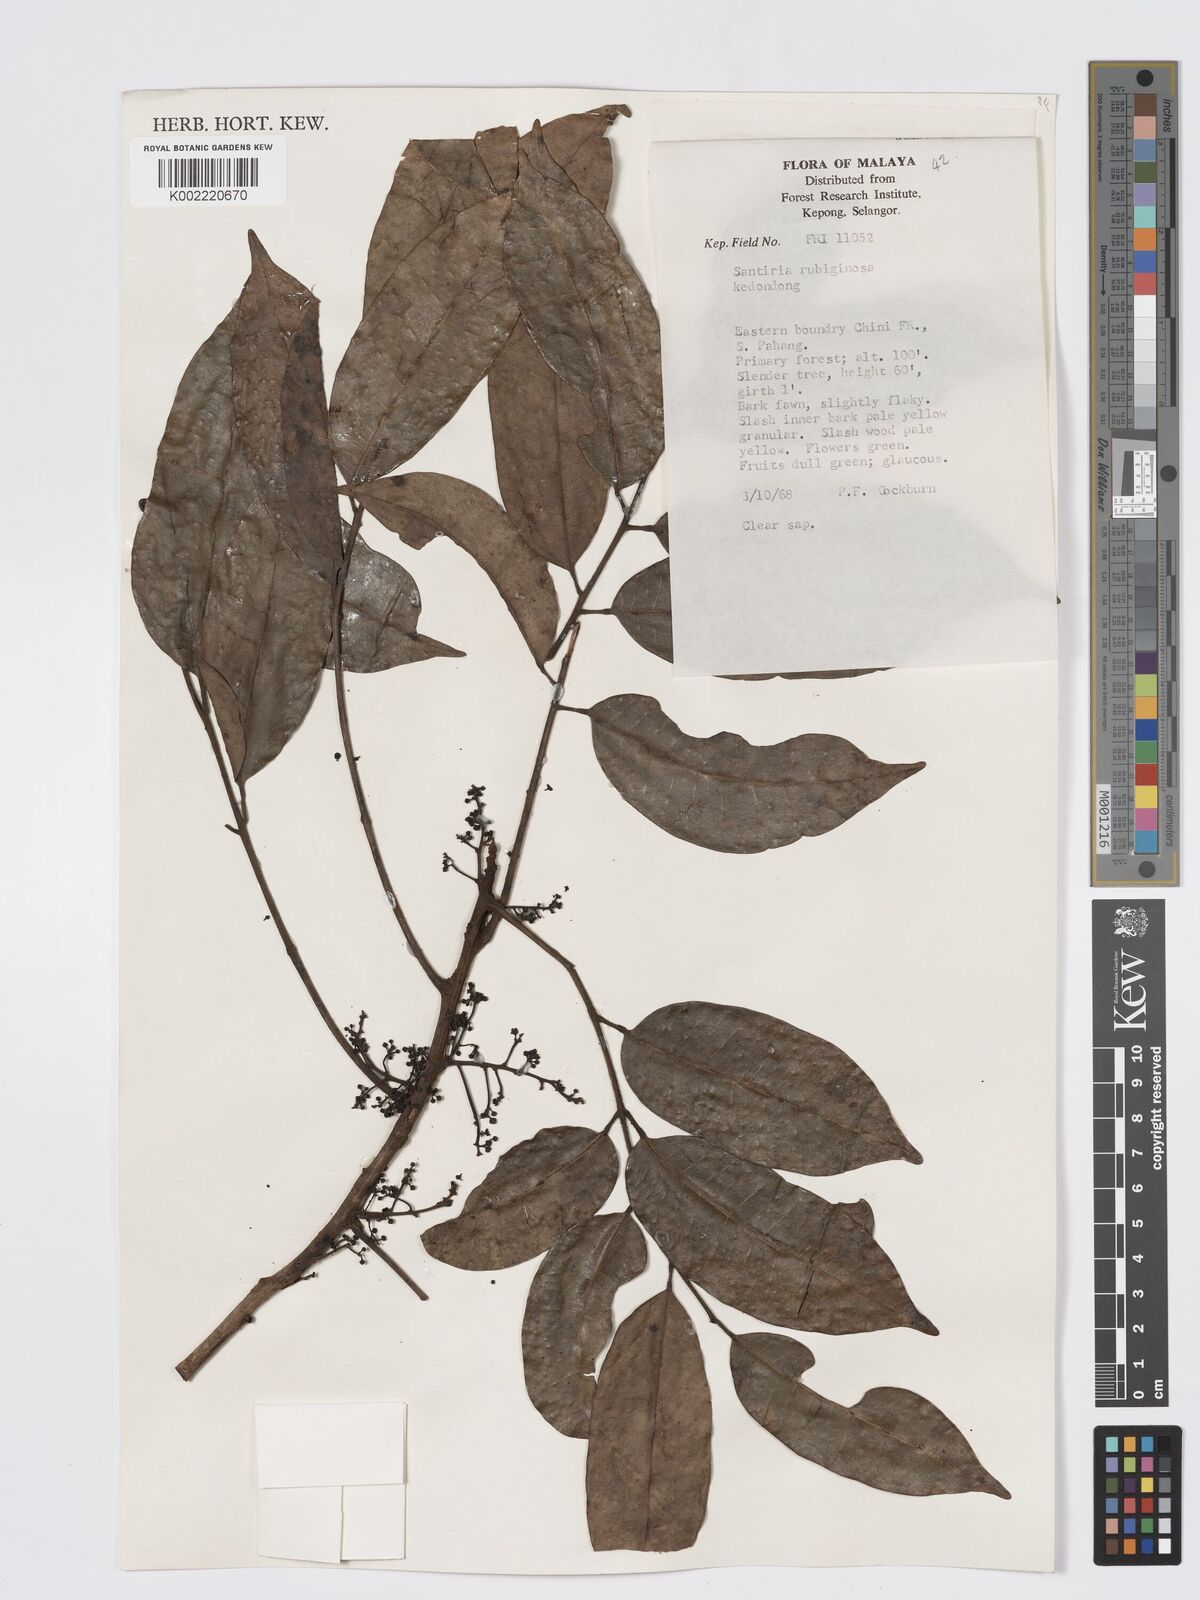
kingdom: Plantae
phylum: Tracheophyta
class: Magnoliopsida
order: Sapindales
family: Burseraceae
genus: Santiria
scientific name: Santiria rubiginosa
